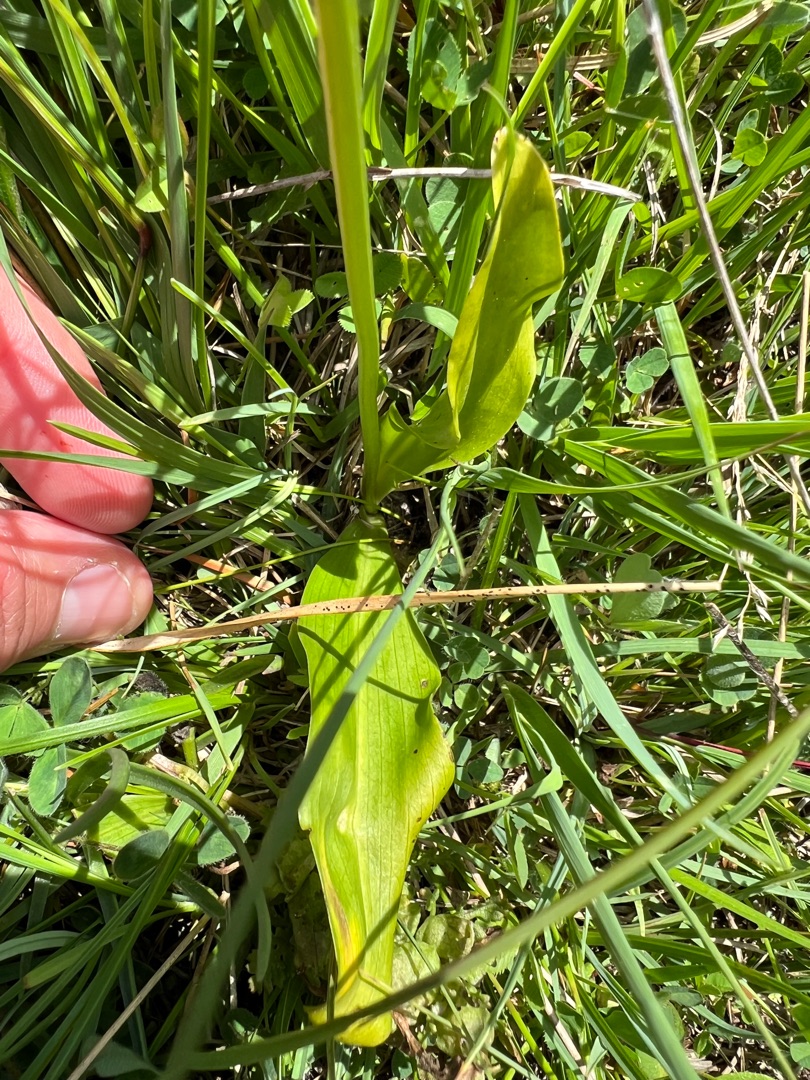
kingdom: Plantae
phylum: Tracheophyta
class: Liliopsida
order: Asparagales
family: Orchidaceae
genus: Platanthera
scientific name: Platanthera bifolia
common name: Bakke-gøgelilje
